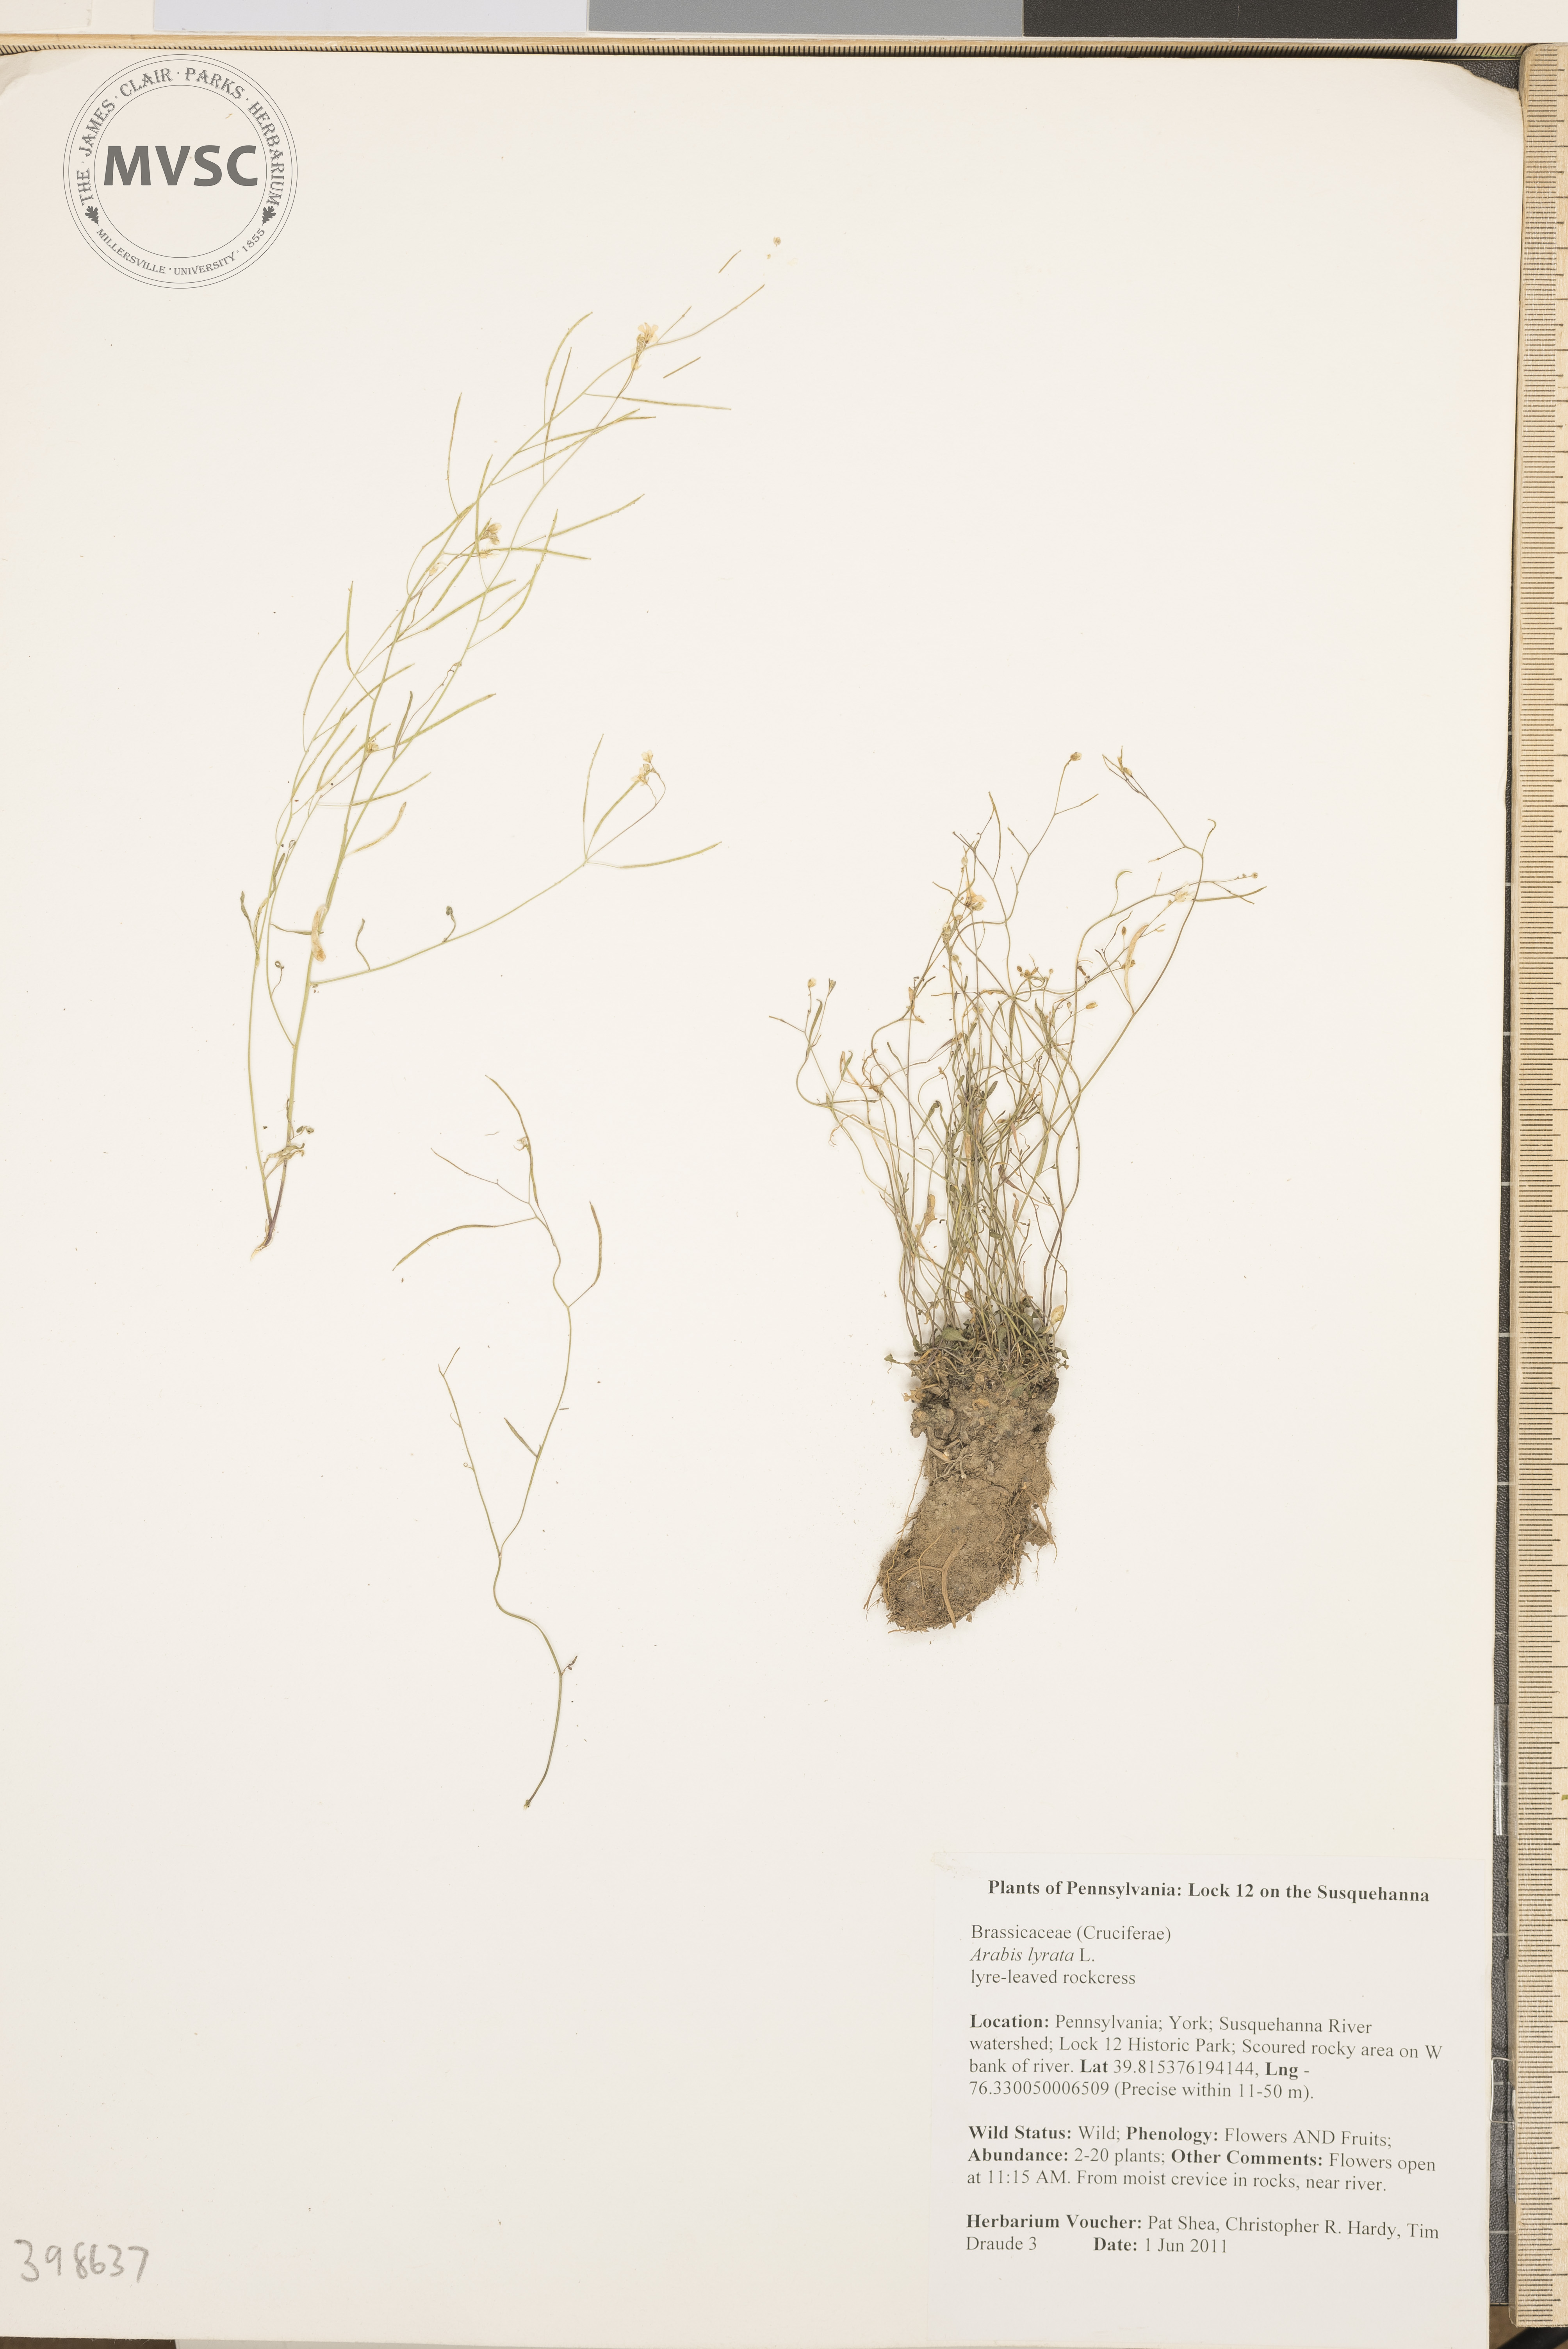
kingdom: Plantae
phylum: Tracheophyta
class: Magnoliopsida
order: Brassicales
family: Brassicaceae
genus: Arabidopsis
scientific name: Arabidopsis lyrata
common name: Lyre-leaved rockcress
